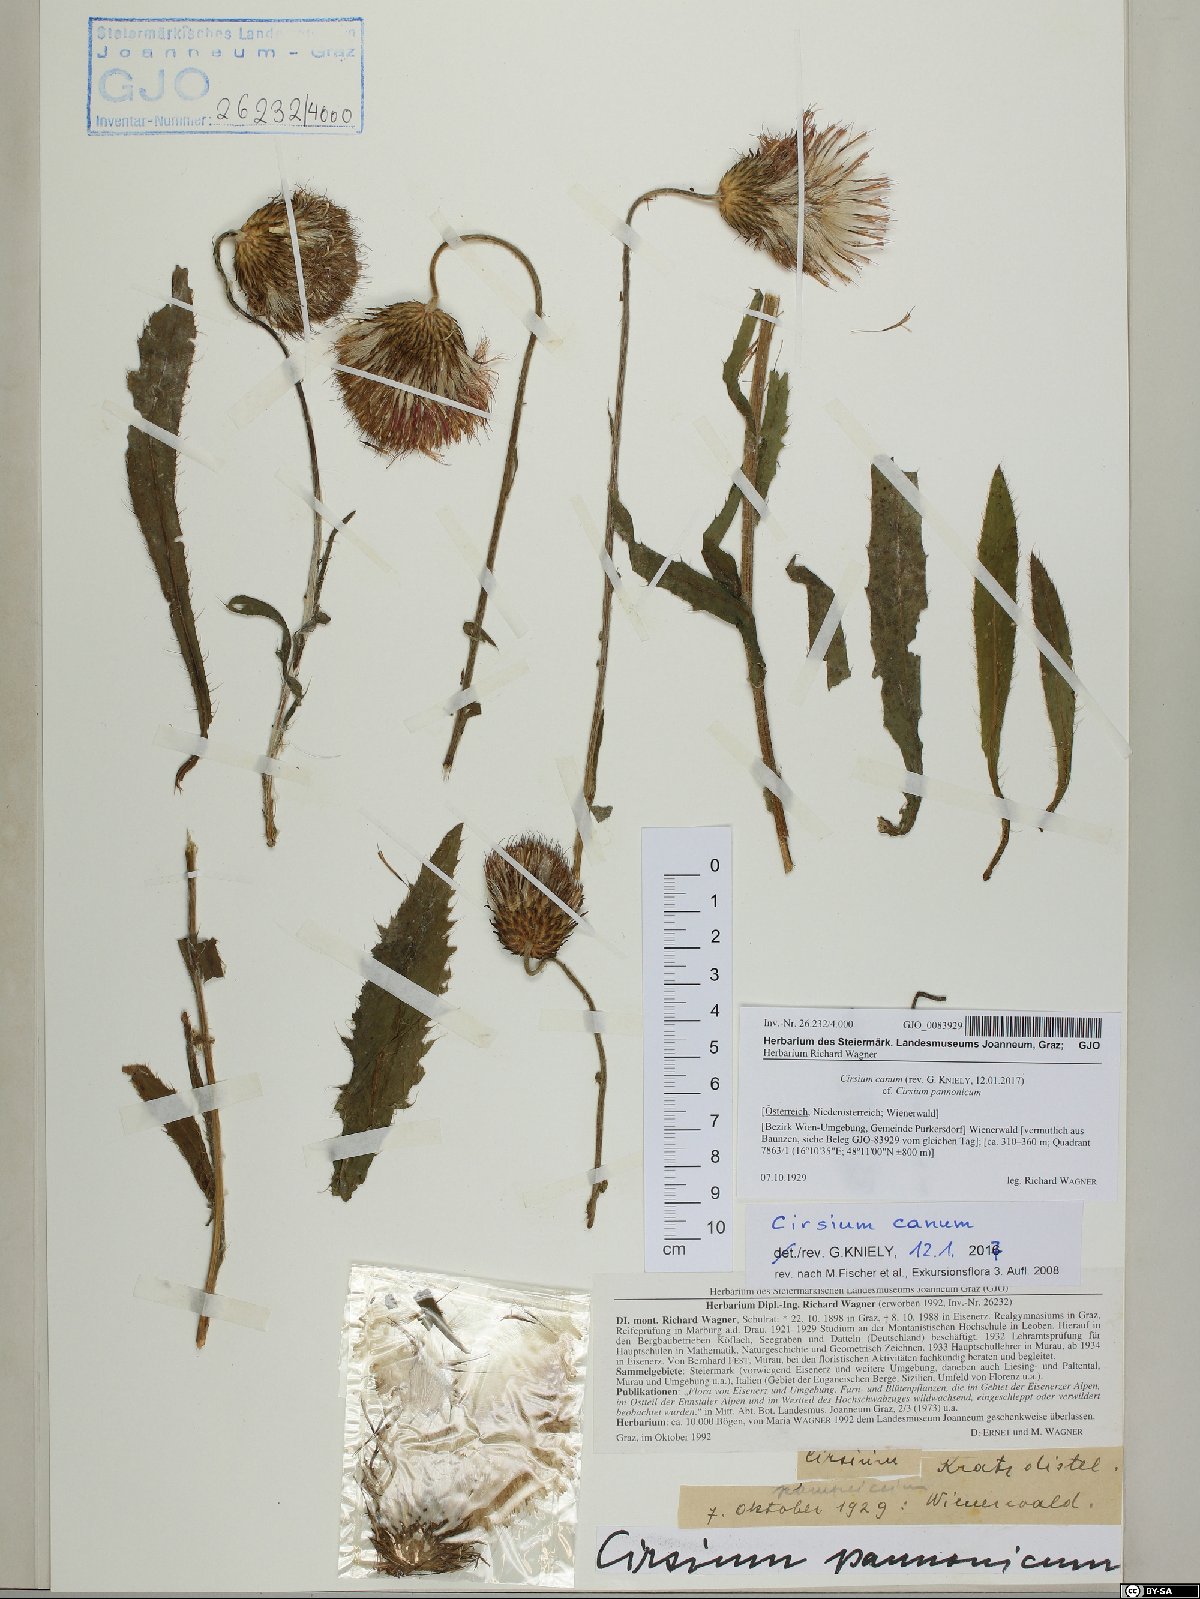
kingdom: Plantae
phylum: Tracheophyta
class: Magnoliopsida
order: Asterales
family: Asteraceae
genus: Cirsium
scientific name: Cirsium canum
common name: Queen anne's thistle
